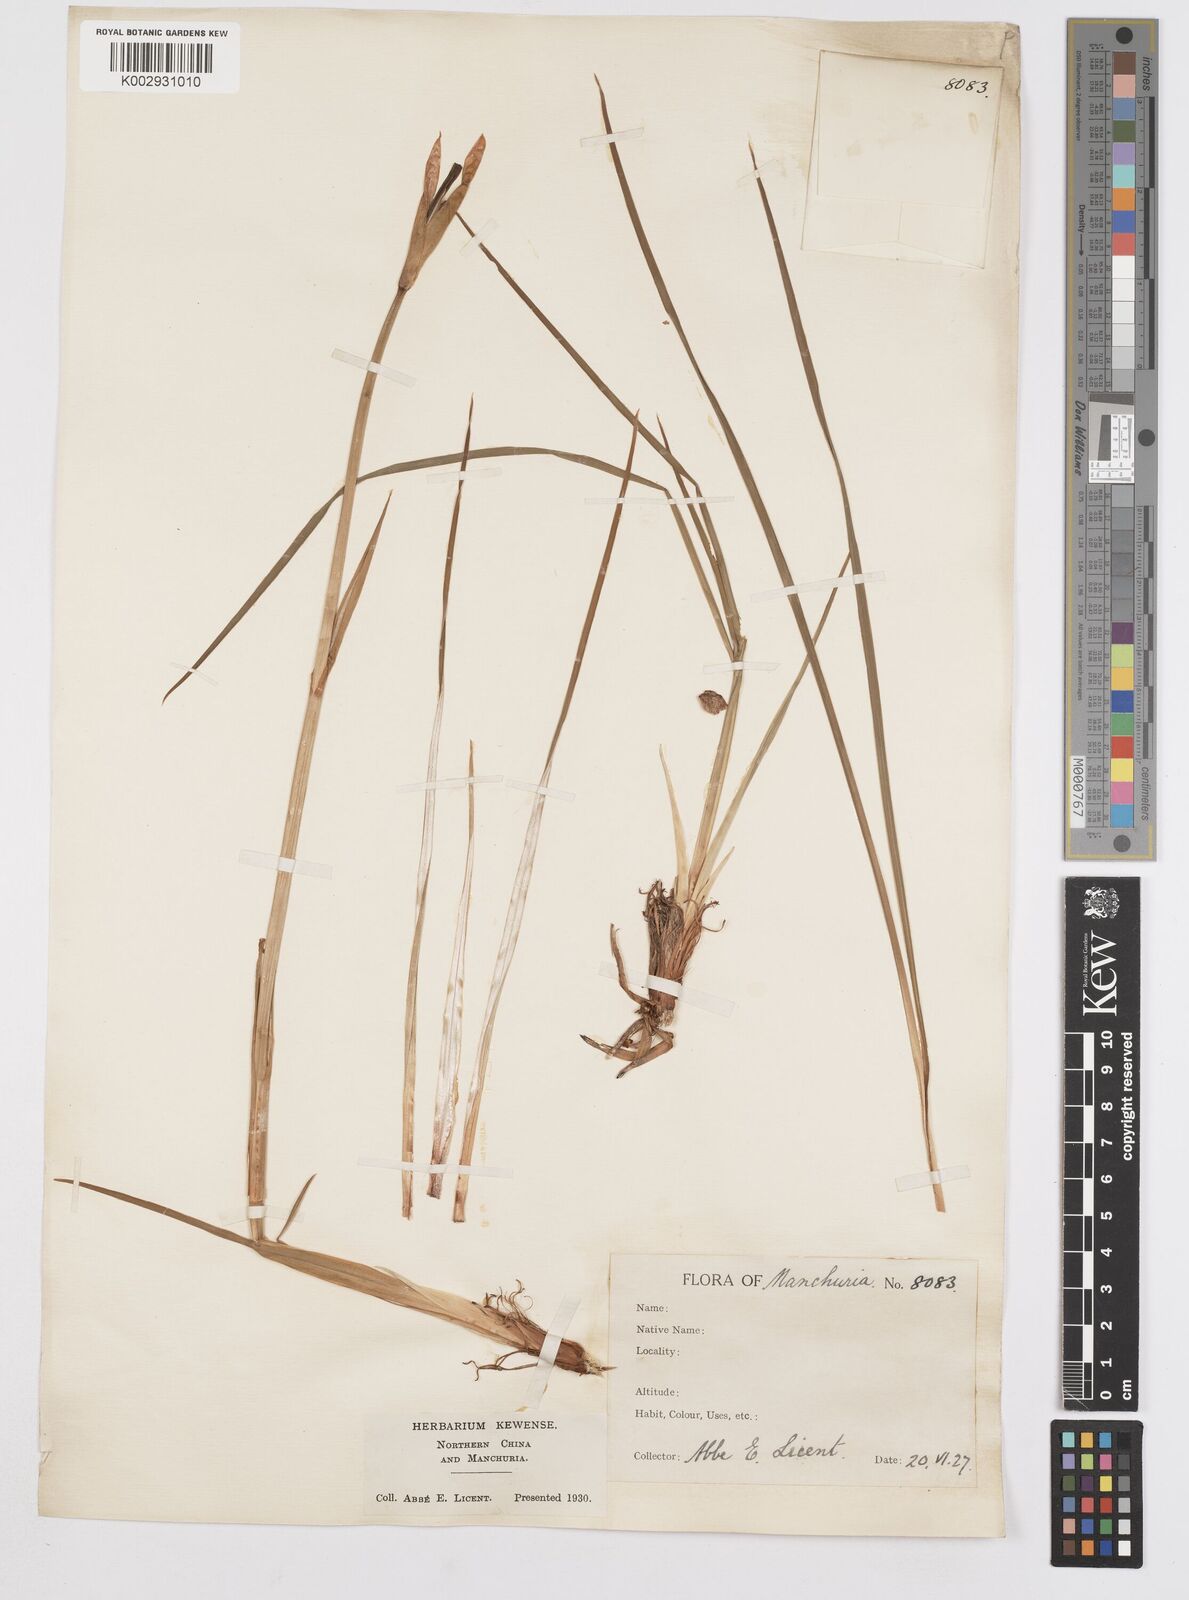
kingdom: Plantae
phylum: Tracheophyta
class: Liliopsida
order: Asparagales
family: Iridaceae
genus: Iris
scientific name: Iris
